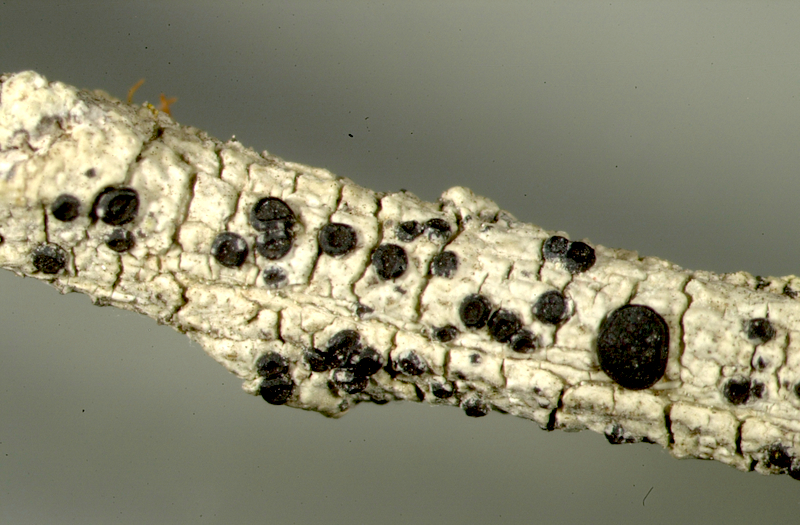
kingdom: Fungi
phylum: Ascomycota
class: Lecanoromycetes
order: Caliciales
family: Caliciaceae
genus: Buellia
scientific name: Buellia
